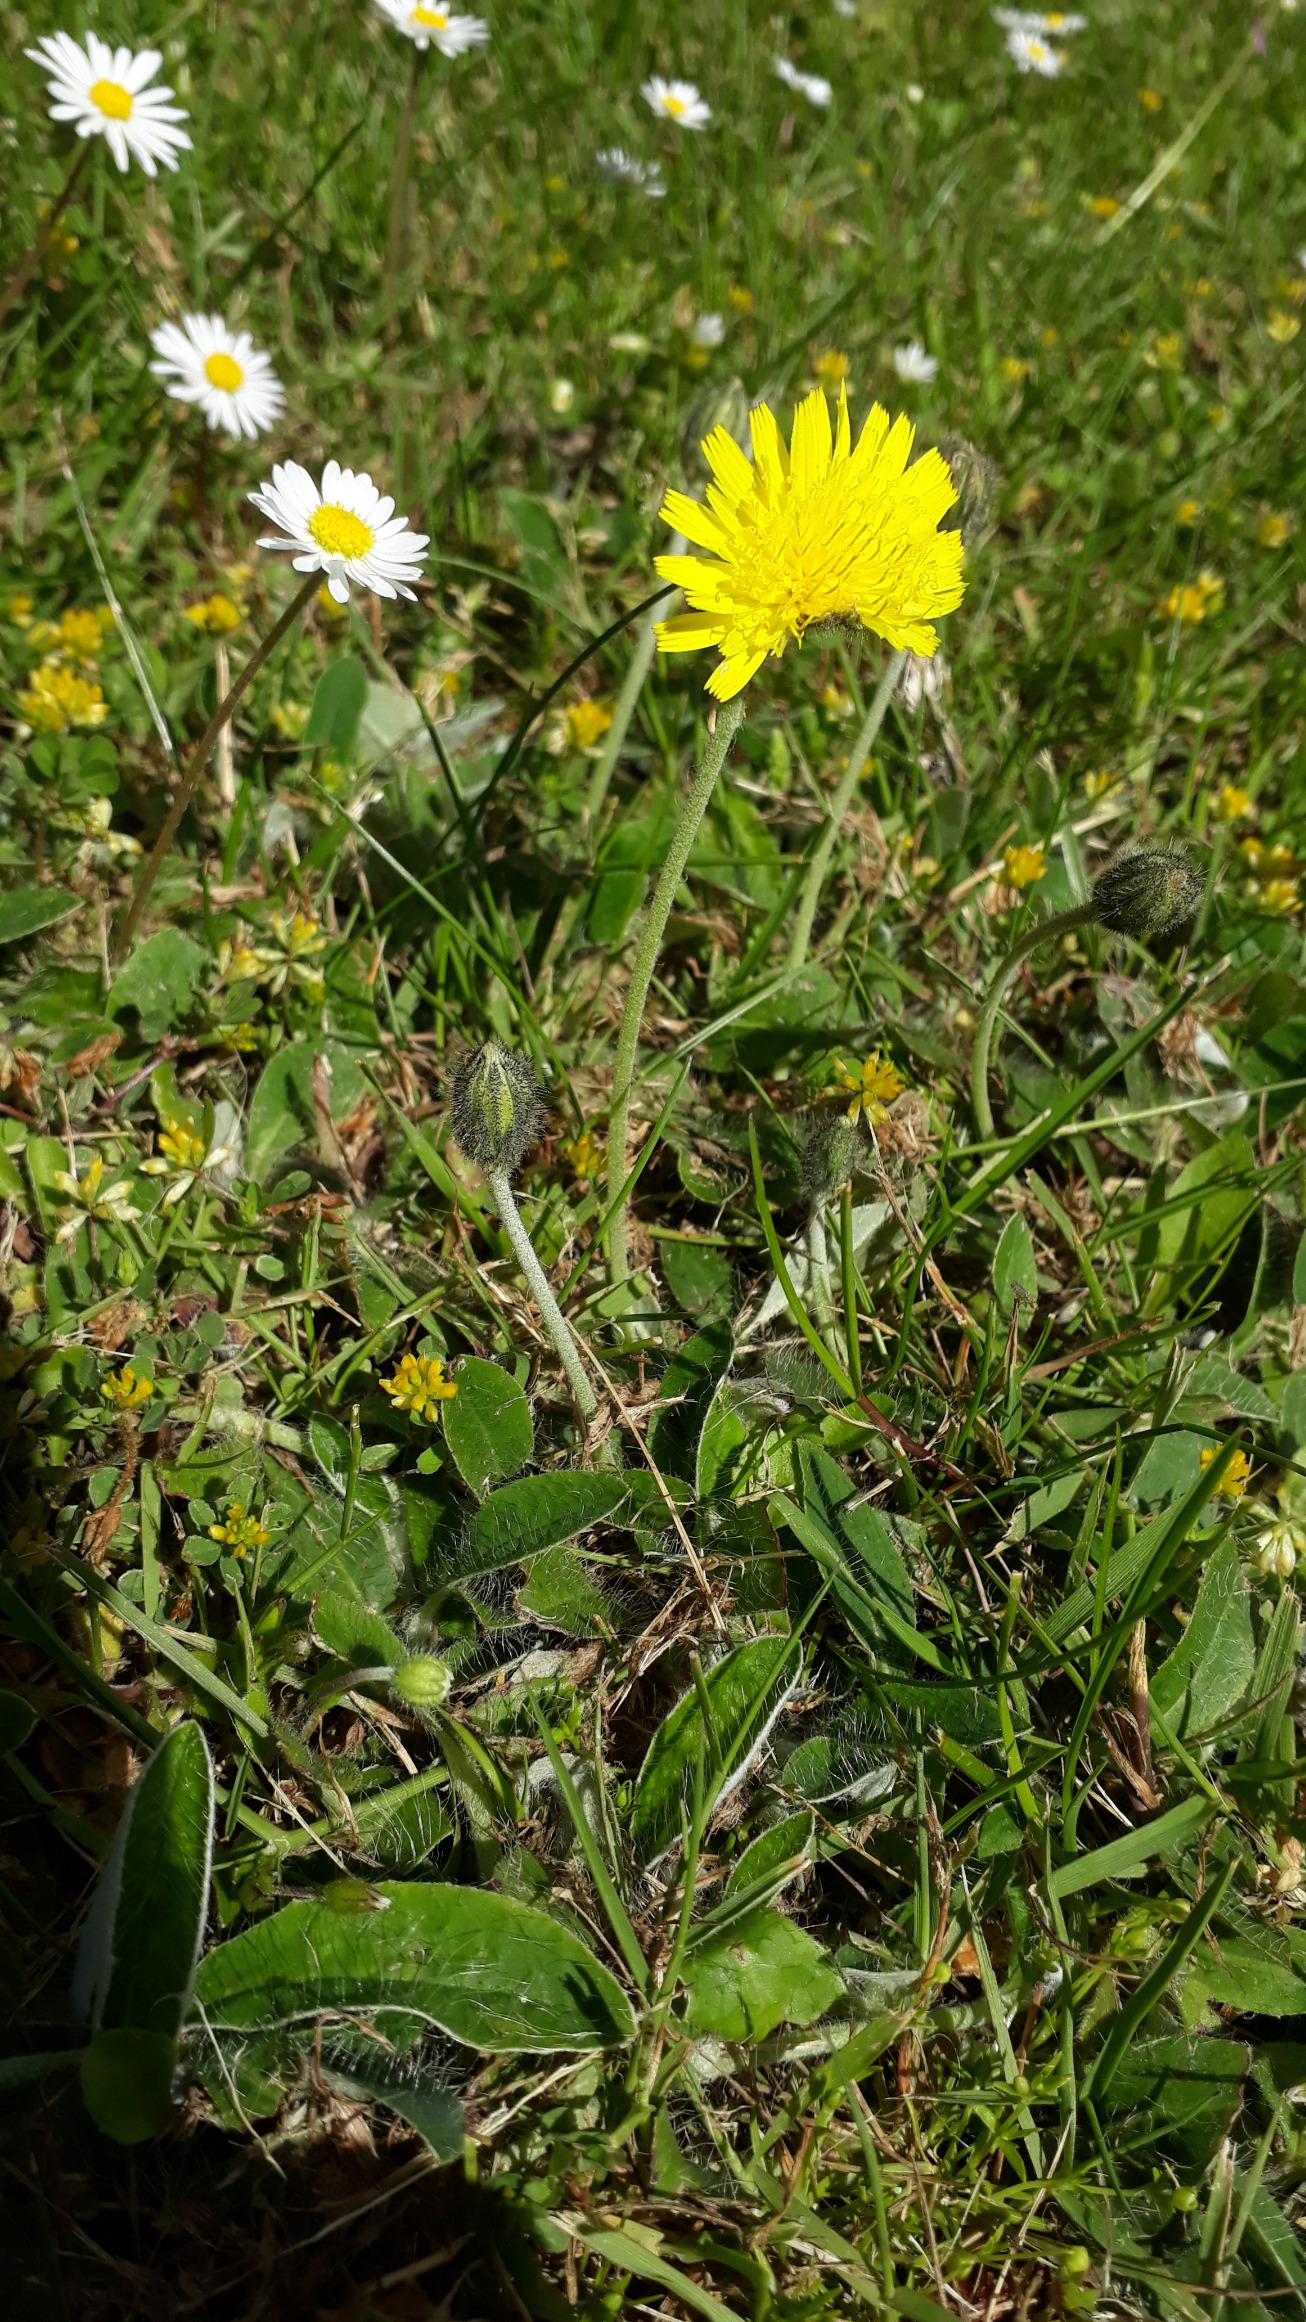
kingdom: Plantae
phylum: Tracheophyta
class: Magnoliopsida
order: Asterales
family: Asteraceae
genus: Pilosella
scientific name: Pilosella officinarum
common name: Håret høgeurt
